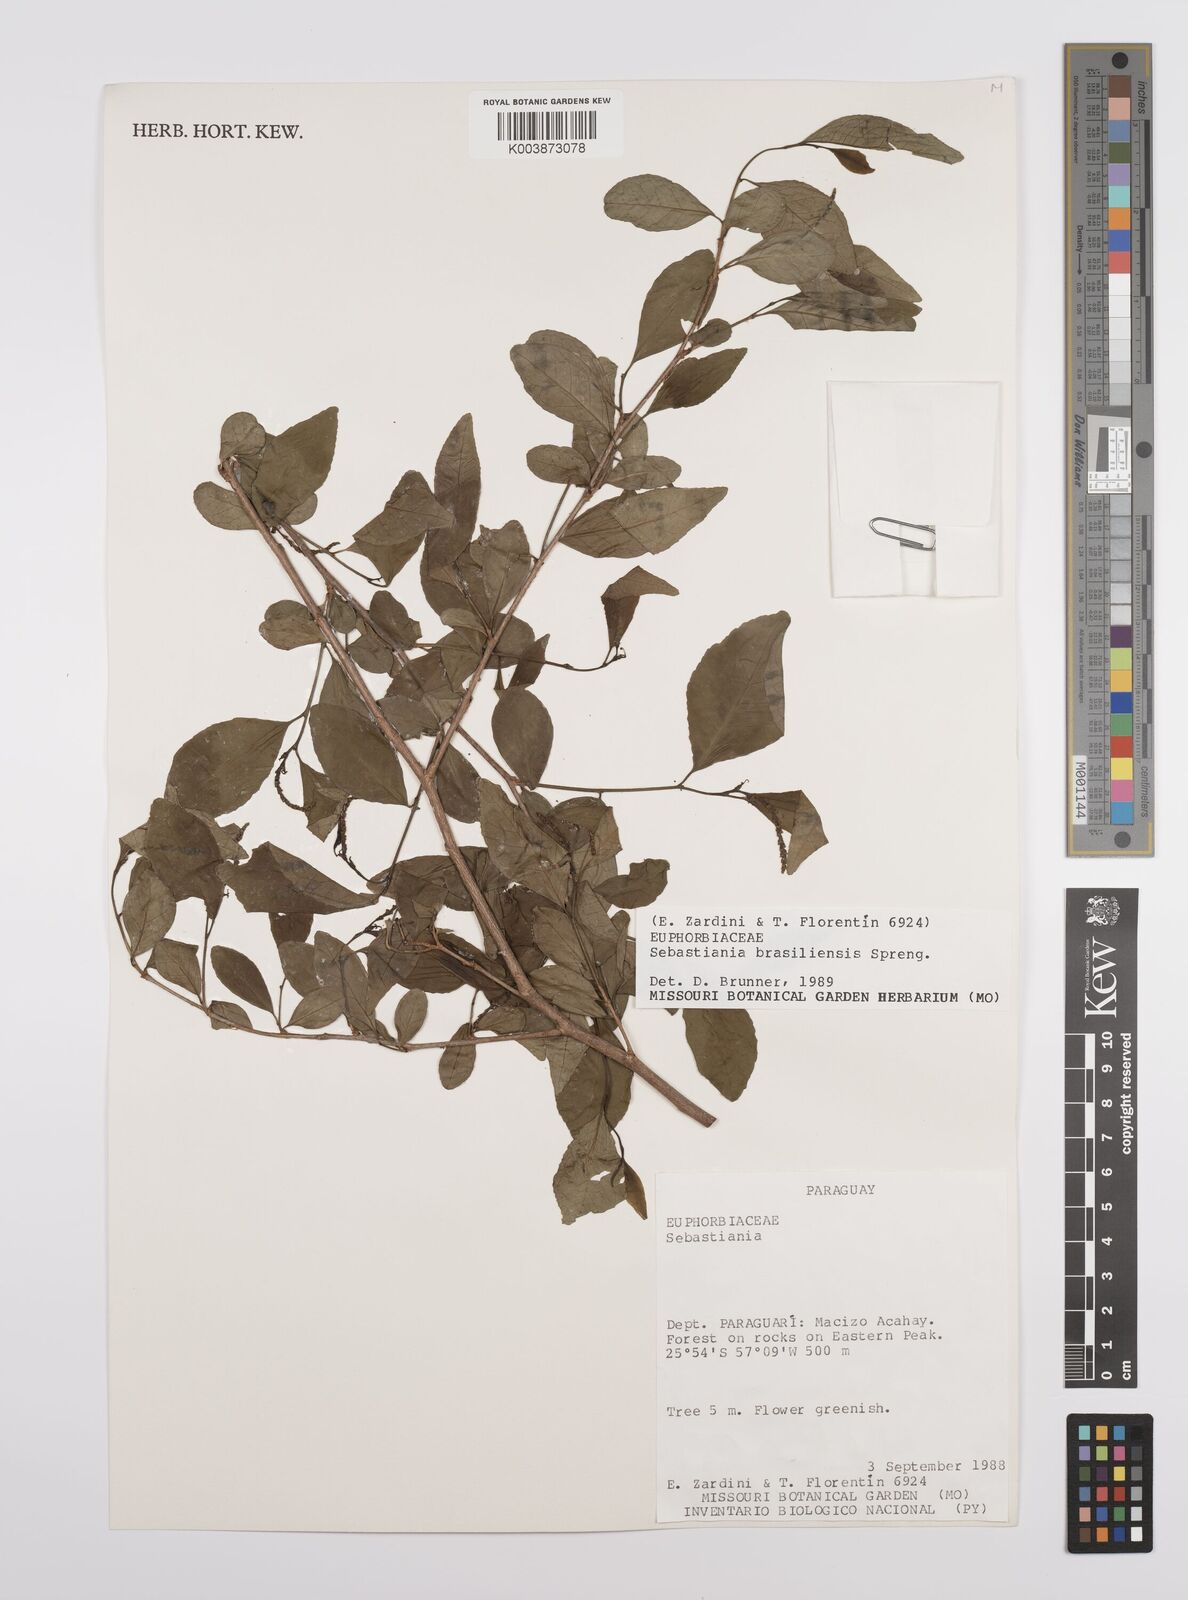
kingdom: Plantae
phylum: Tracheophyta
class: Magnoliopsida
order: Malpighiales
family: Euphorbiaceae
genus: Sebastiania
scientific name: Sebastiania brasiliensis
